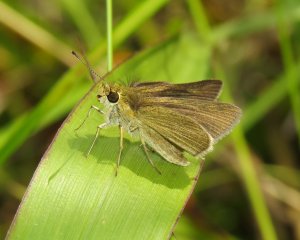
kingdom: Animalia
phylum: Arthropoda
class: Insecta
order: Lepidoptera
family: Hesperiidae
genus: Nastra
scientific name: Nastra lherminier
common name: Swarthy Skipper
